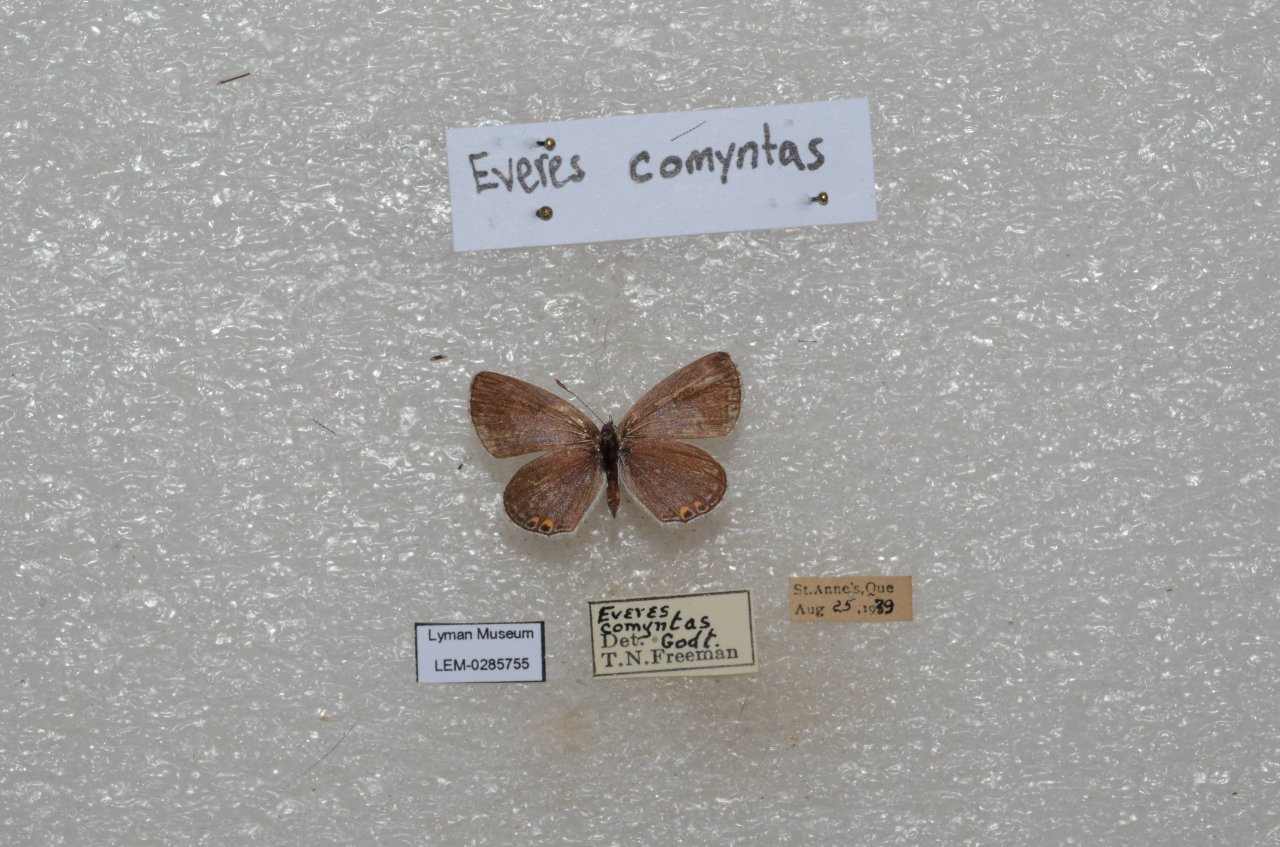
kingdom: Animalia
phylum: Arthropoda
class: Insecta
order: Lepidoptera
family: Lycaenidae
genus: Elkalyce
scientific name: Elkalyce comyntas
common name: Eastern Tailed-Blue
